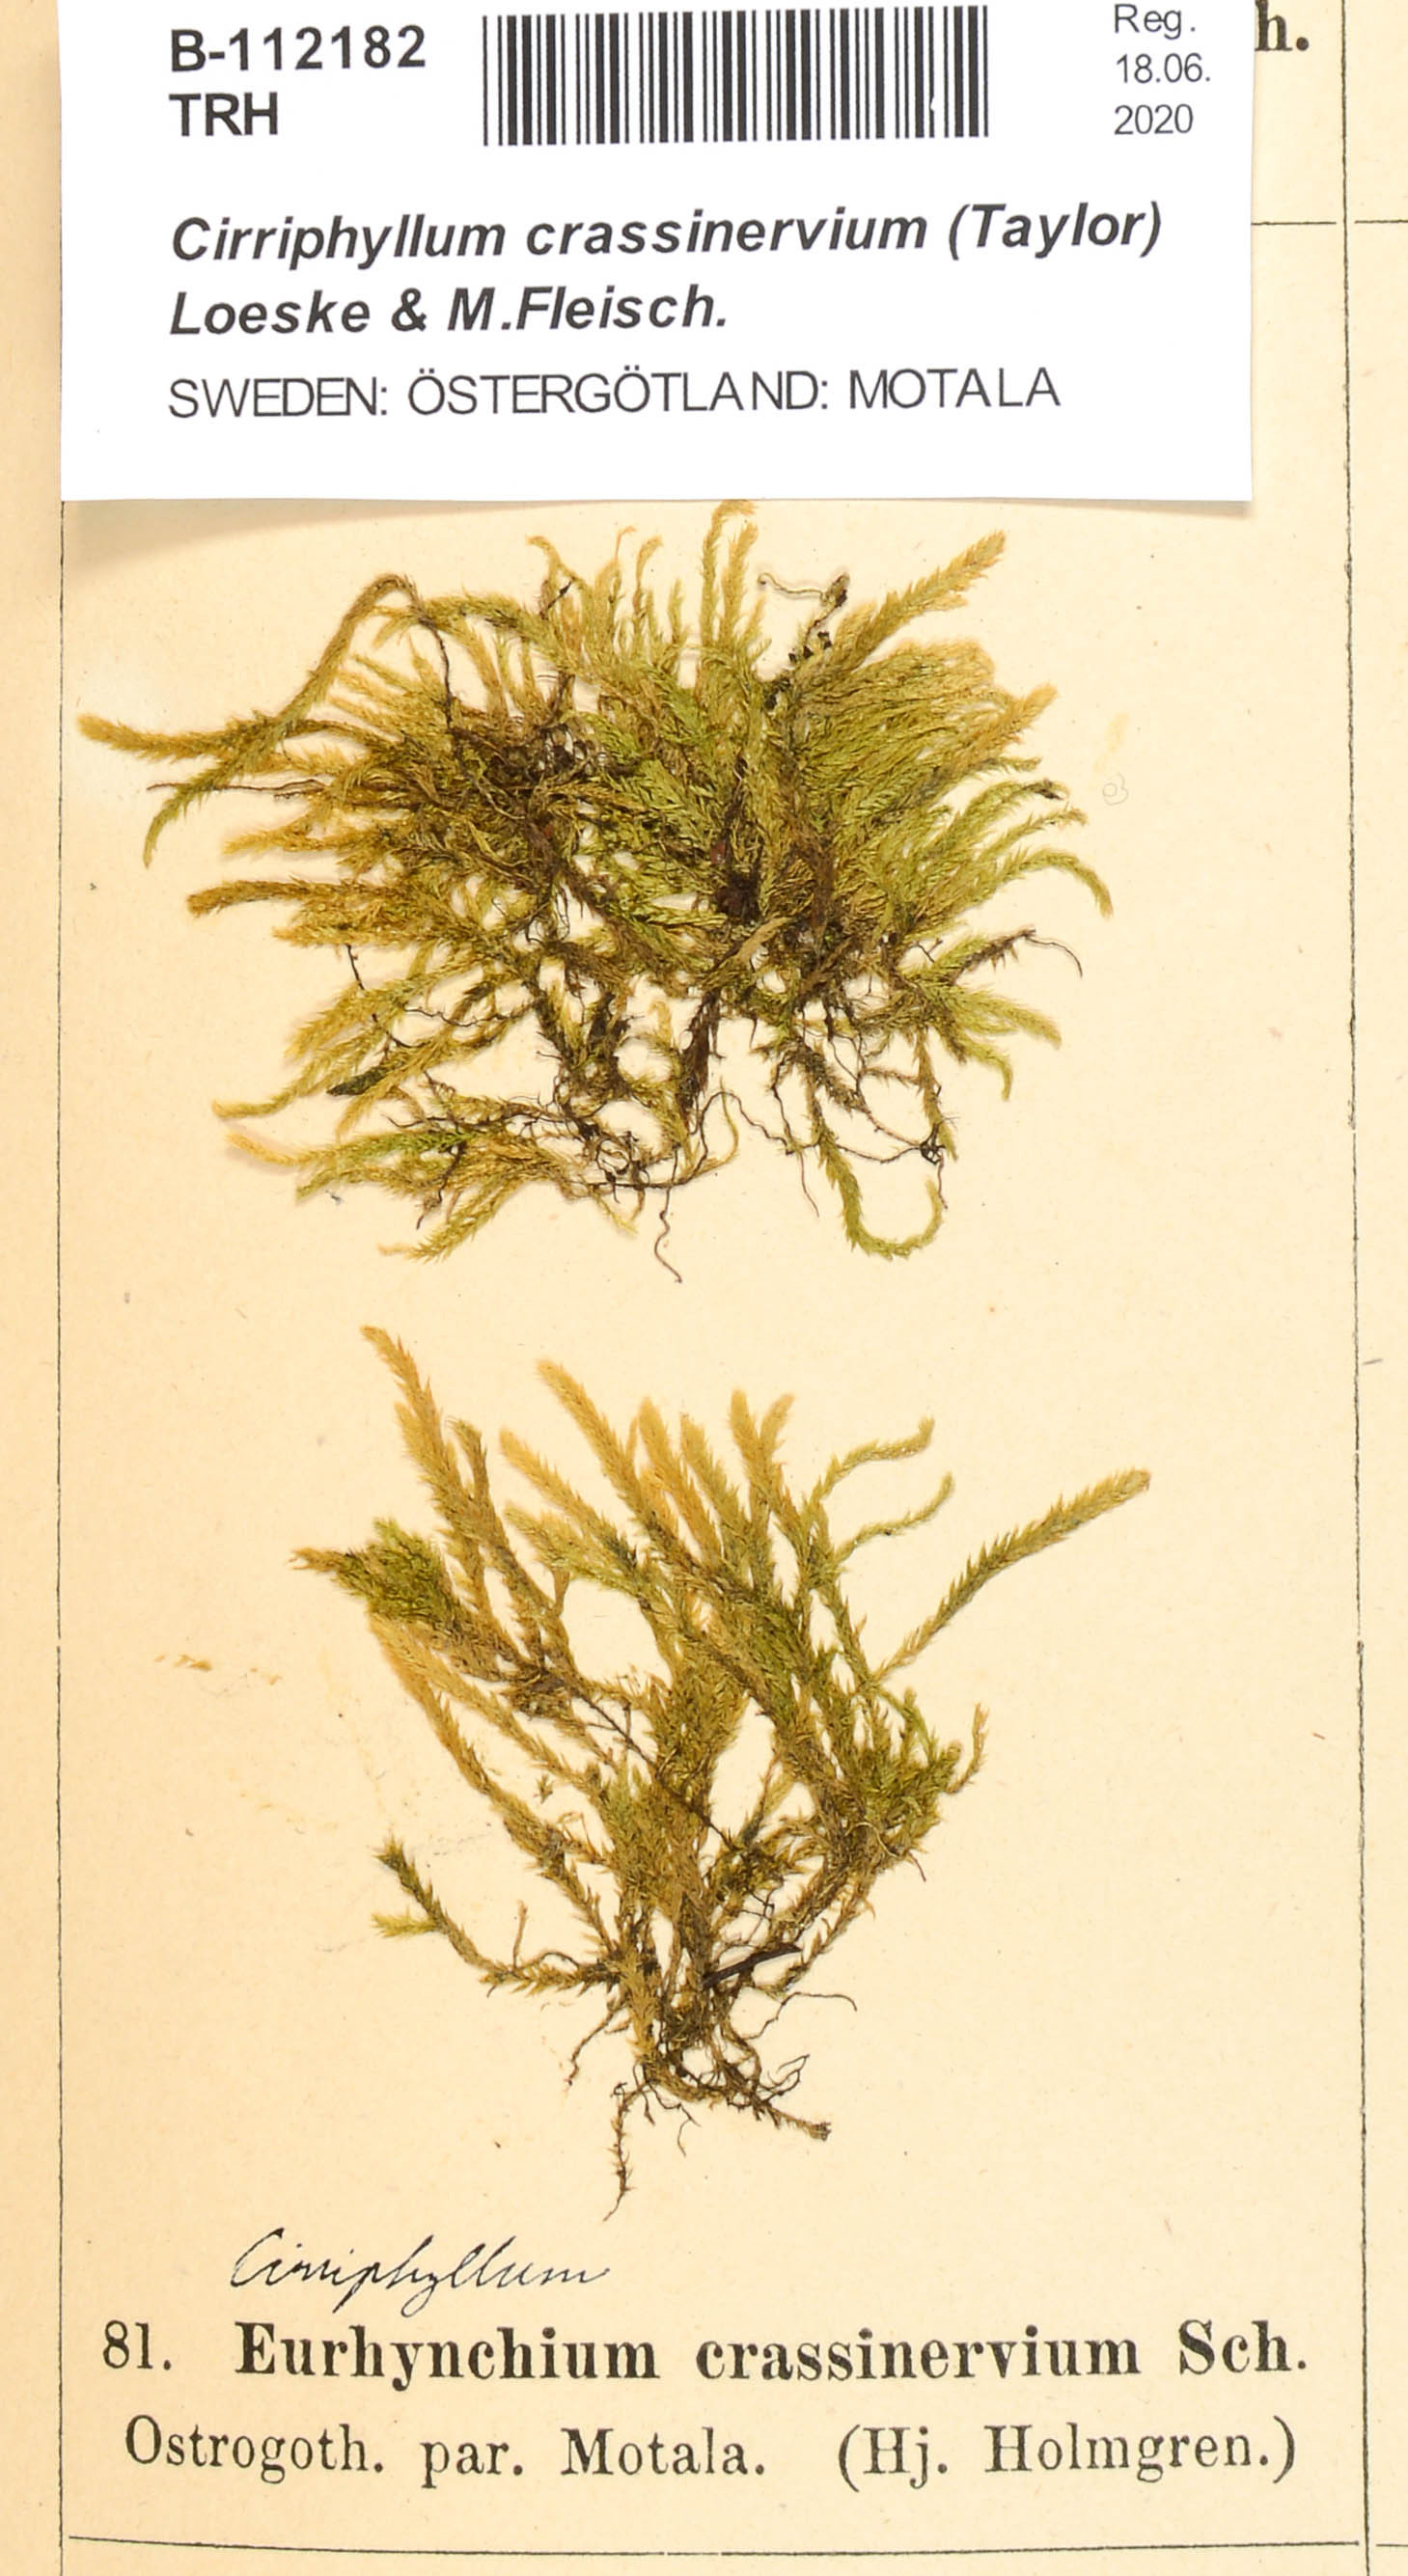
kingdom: Plantae
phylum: Bryophyta
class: Bryopsida
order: Hypnales
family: Brachytheciaceae
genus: Cirriphyllum
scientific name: Cirriphyllum crassinervium
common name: Beech feather-moss
